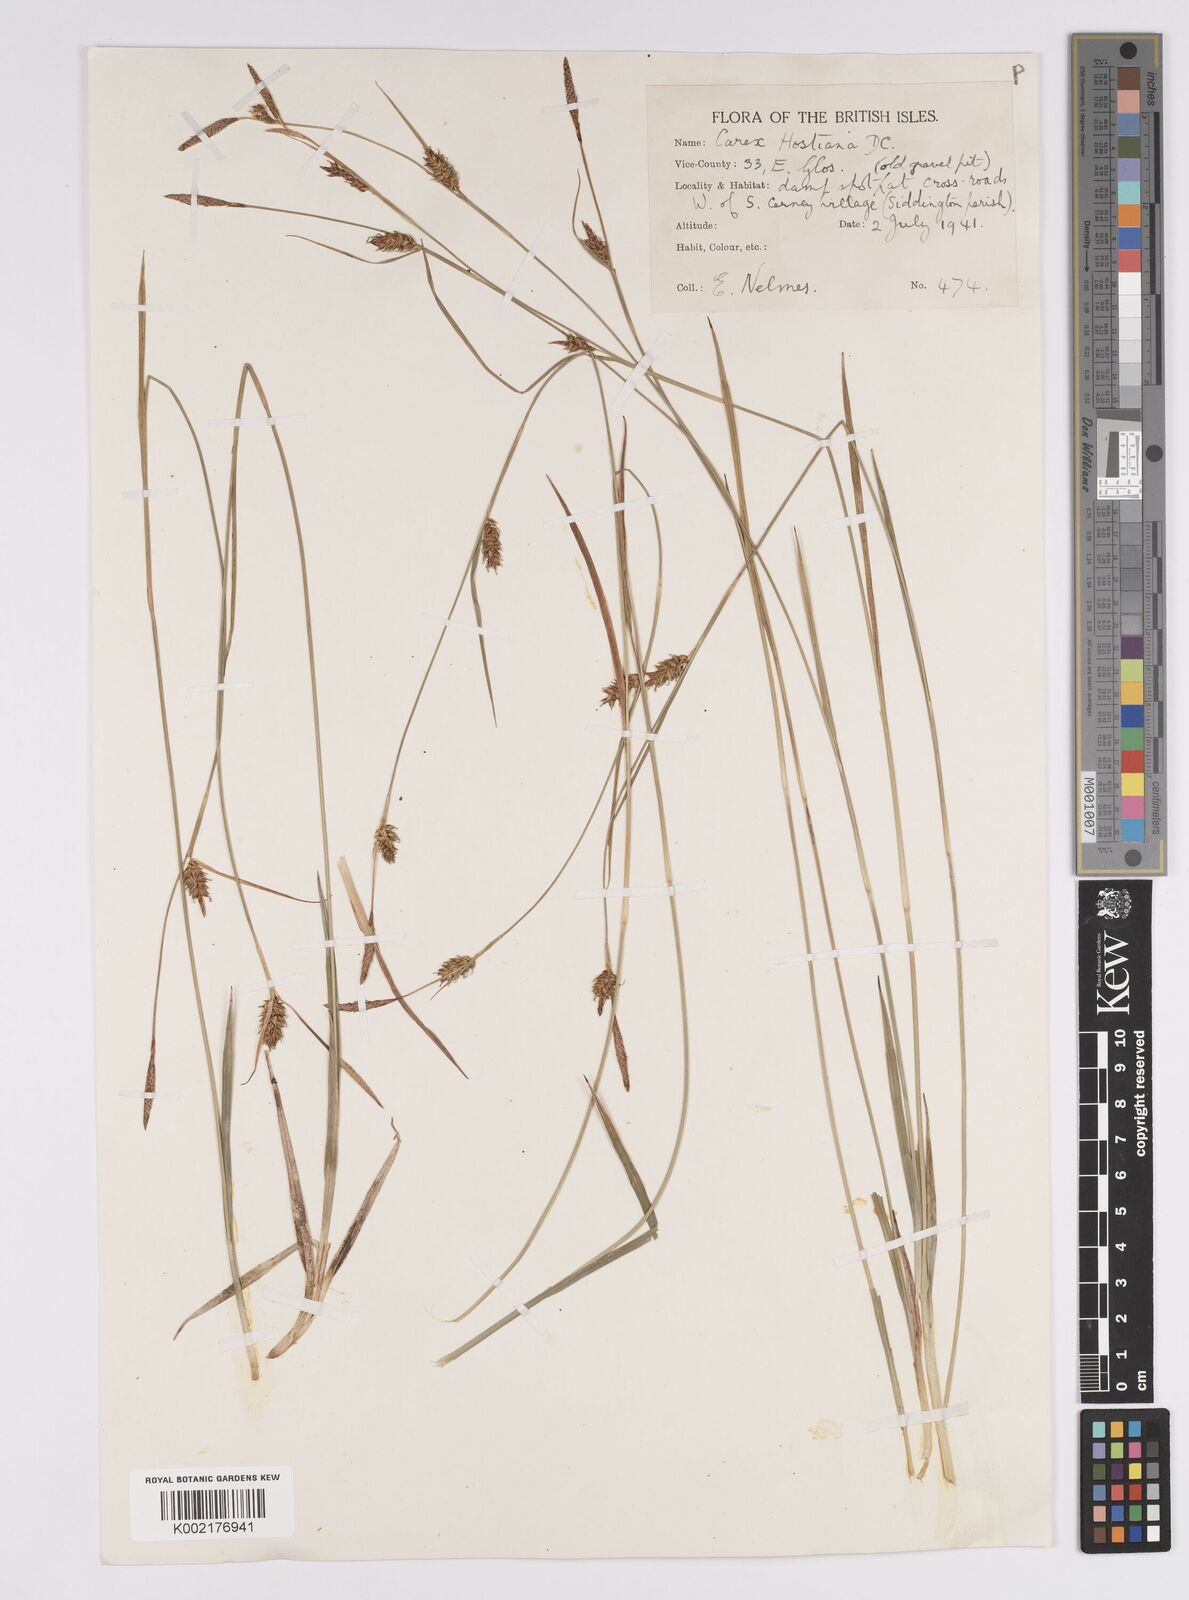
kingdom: Plantae
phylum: Tracheophyta
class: Liliopsida
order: Poales
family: Cyperaceae
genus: Carex
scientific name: Carex hostiana
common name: Tawny sedge
